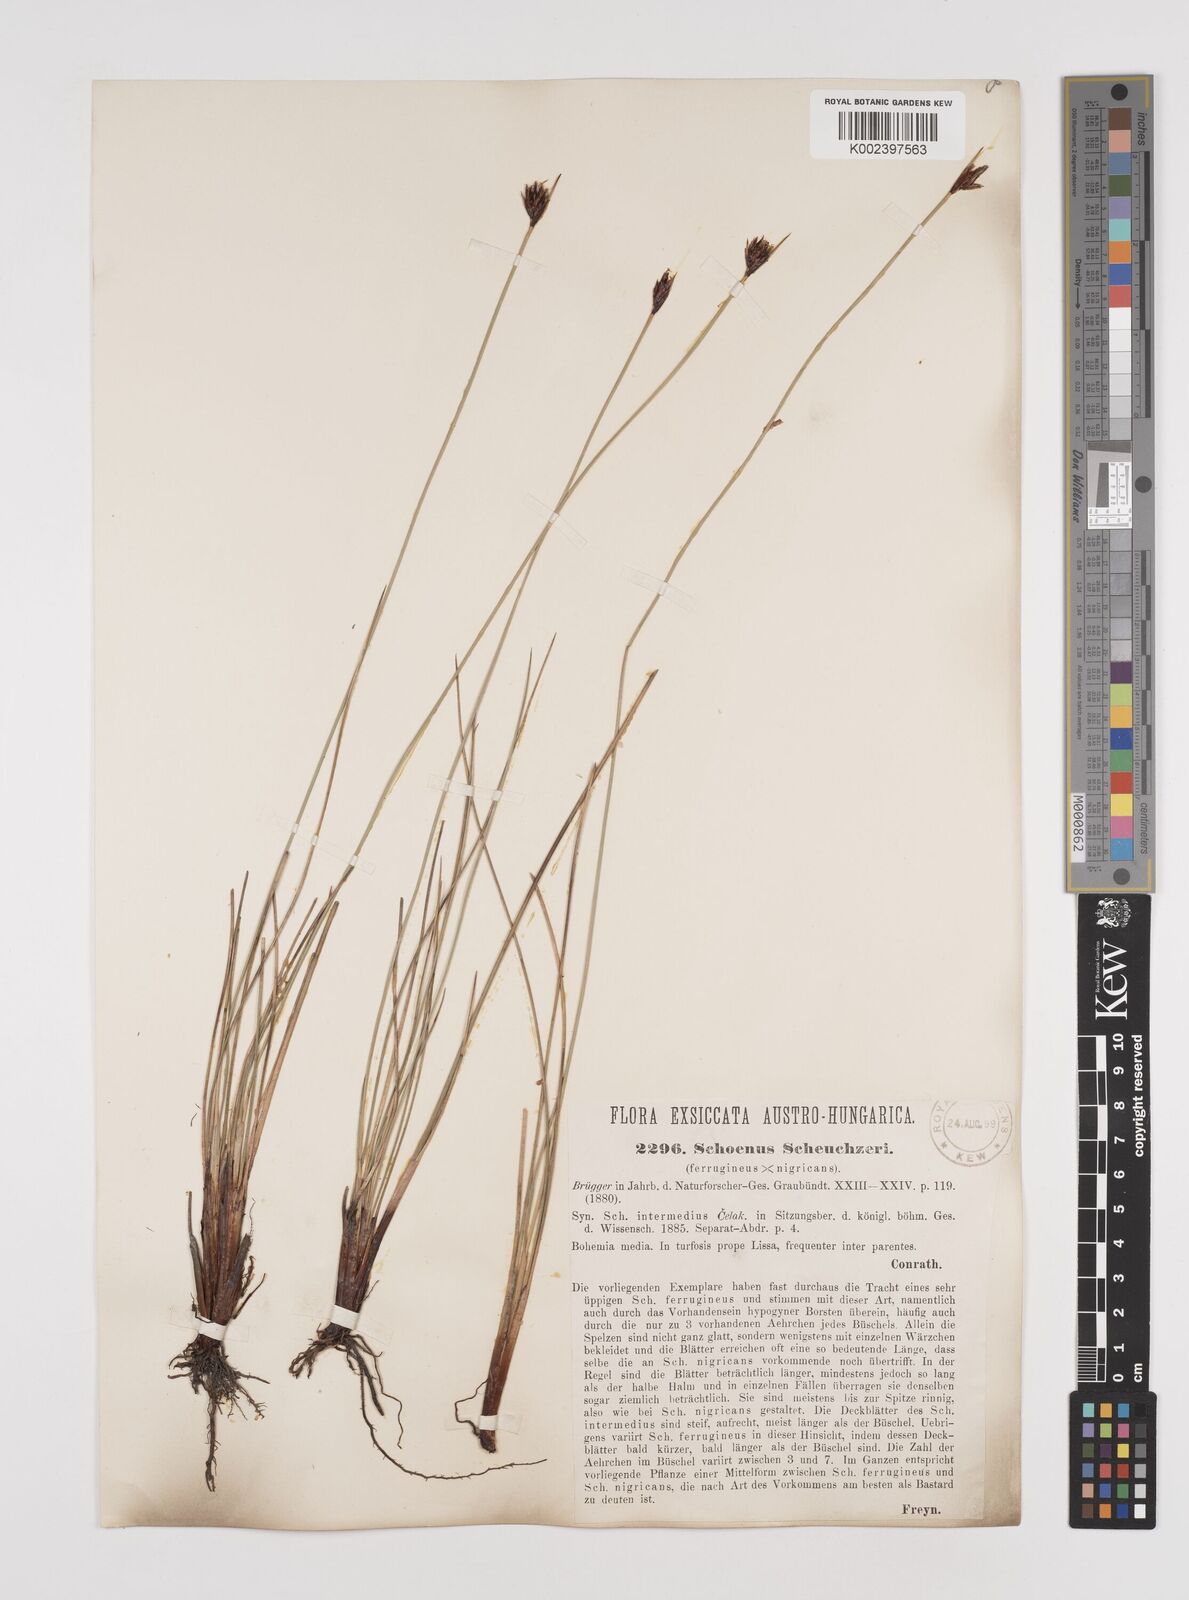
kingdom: Plantae
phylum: Tracheophyta
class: Liliopsida
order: Poales
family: Cyperaceae
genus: Schoenus
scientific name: Schoenus nigricans
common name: Black bog-rush
